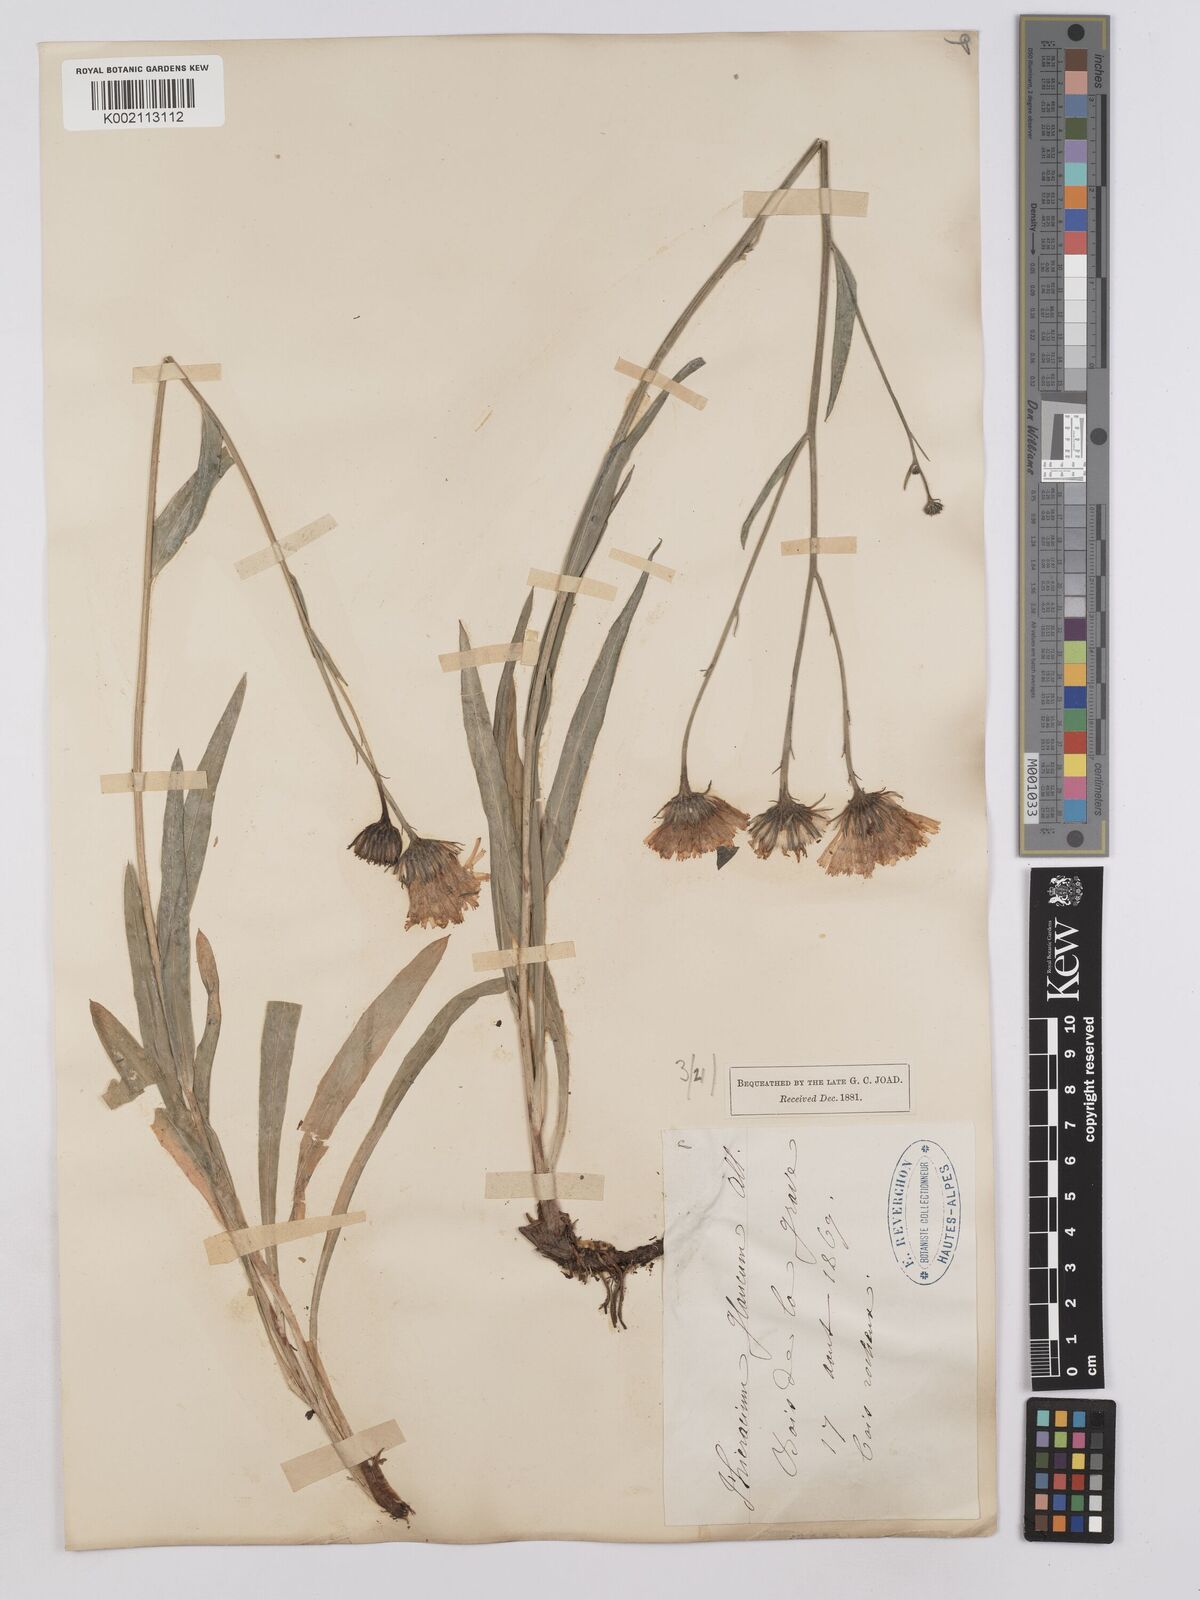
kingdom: Plantae
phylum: Tracheophyta
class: Magnoliopsida
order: Asterales
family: Asteraceae
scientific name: Asteraceae
